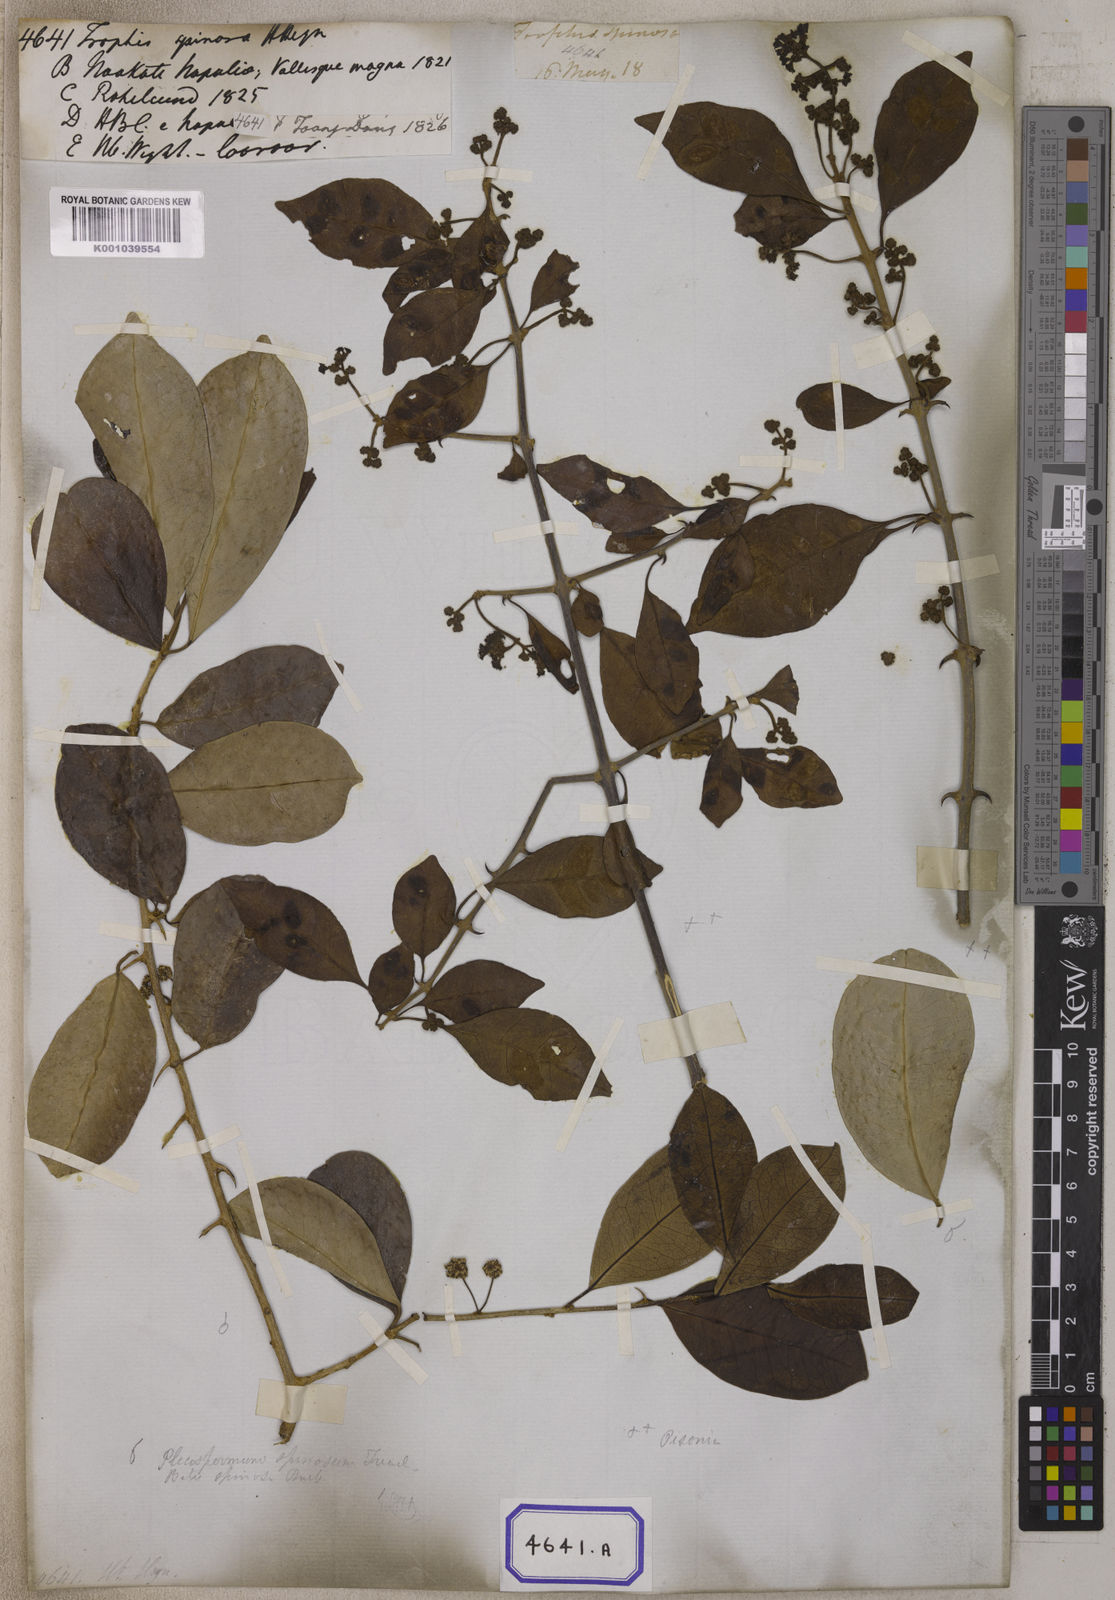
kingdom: Plantae
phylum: Tracheophyta
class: Magnoliopsida
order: Rosales
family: Moraceae
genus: Taxotrophis
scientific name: Taxotrophis taxoides
